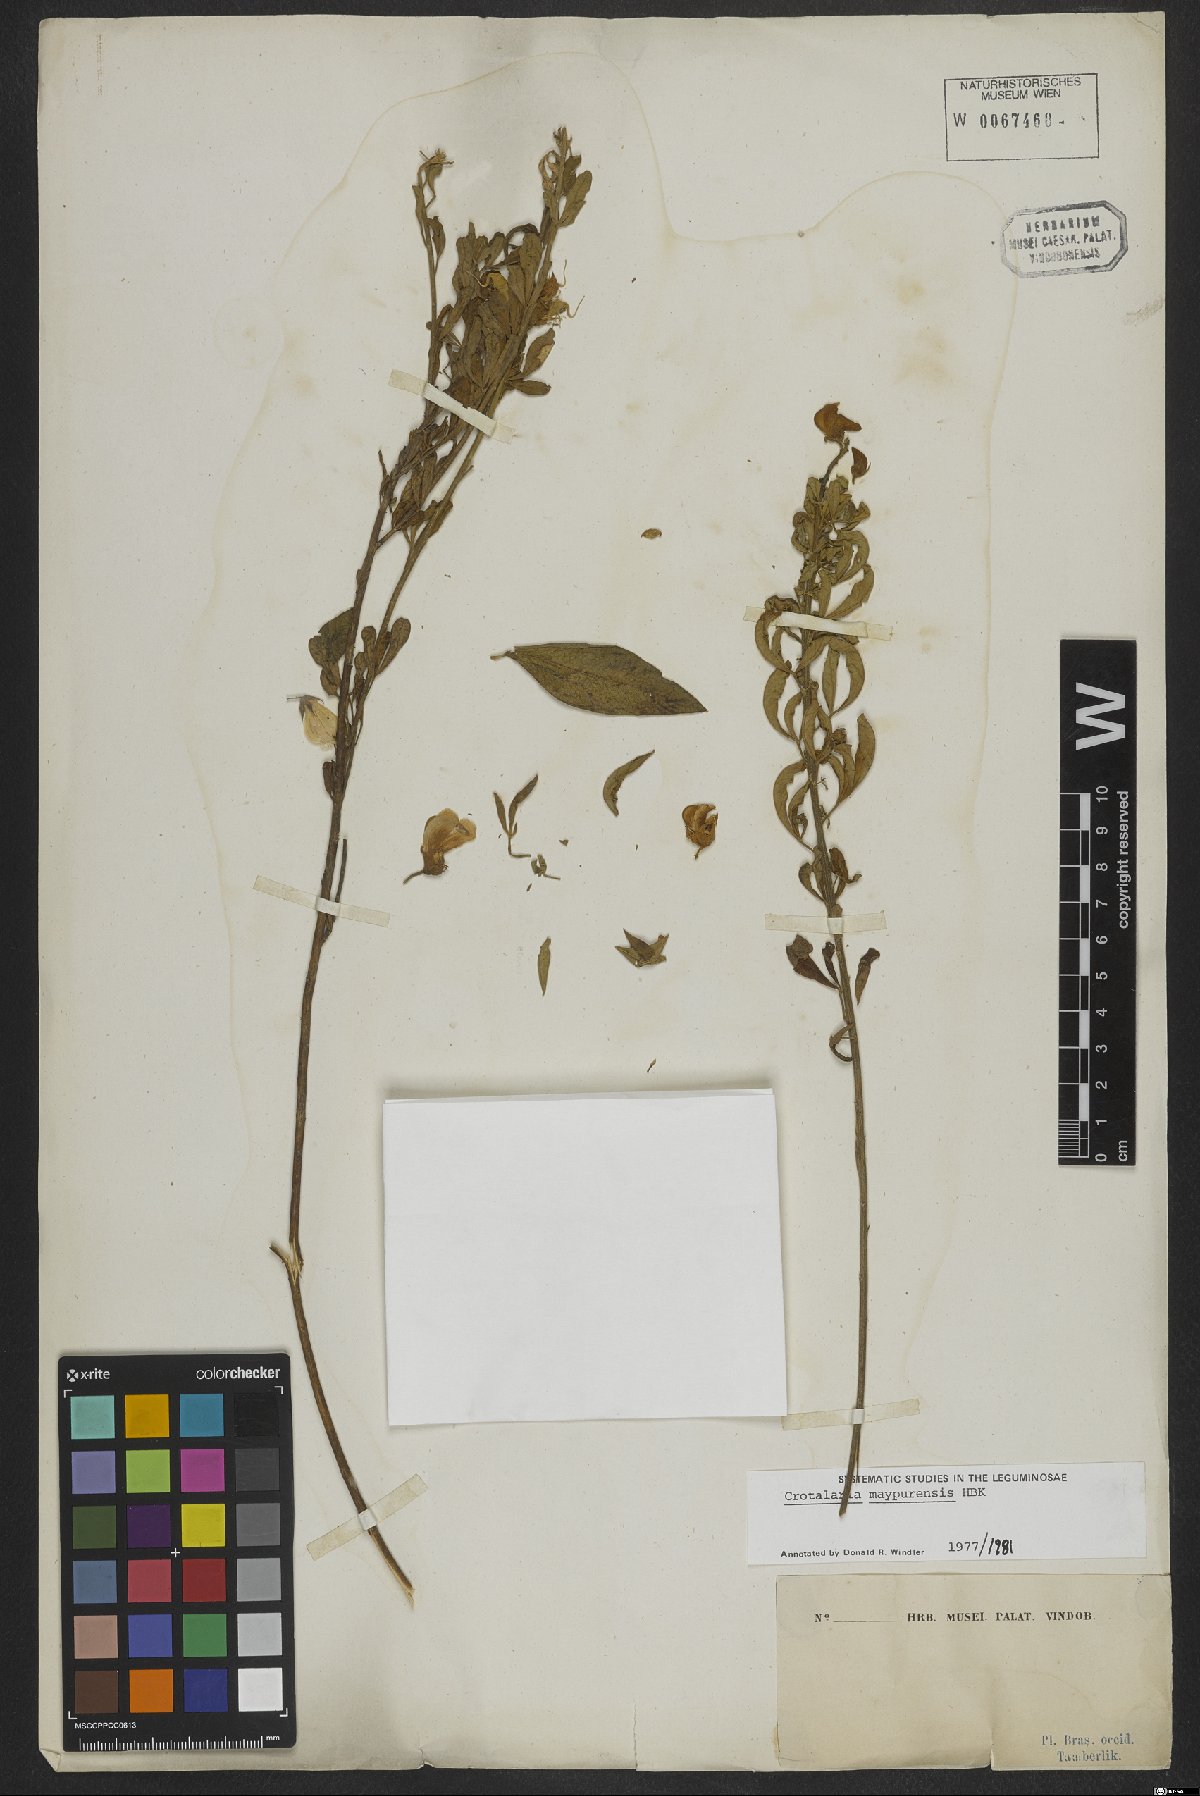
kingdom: Plantae
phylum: Tracheophyta
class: Magnoliopsida
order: Fabales
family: Fabaceae
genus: Crotalaria
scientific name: Crotalaria maypurensis
